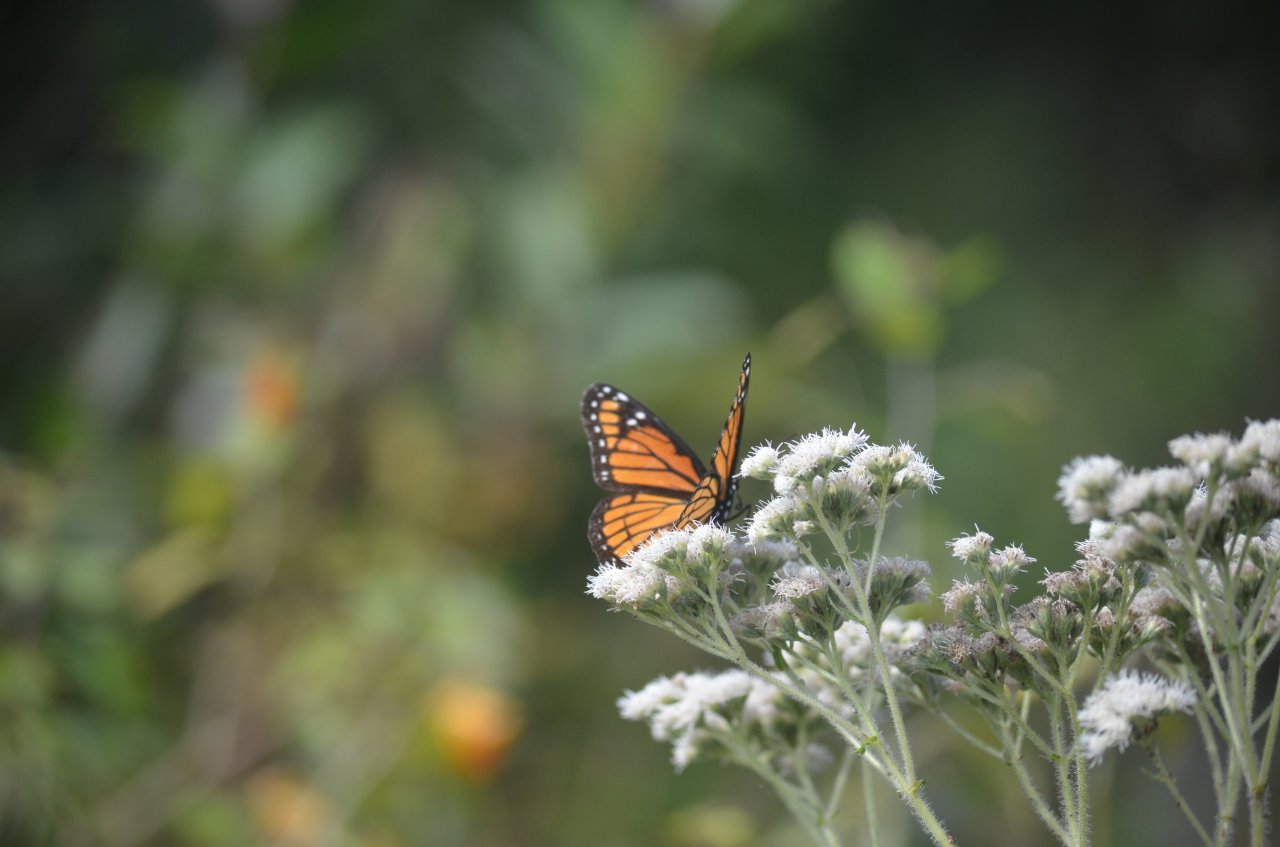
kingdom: Animalia
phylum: Arthropoda
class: Insecta
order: Lepidoptera
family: Nymphalidae
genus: Limenitis
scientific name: Limenitis archippus
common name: Viceroy
